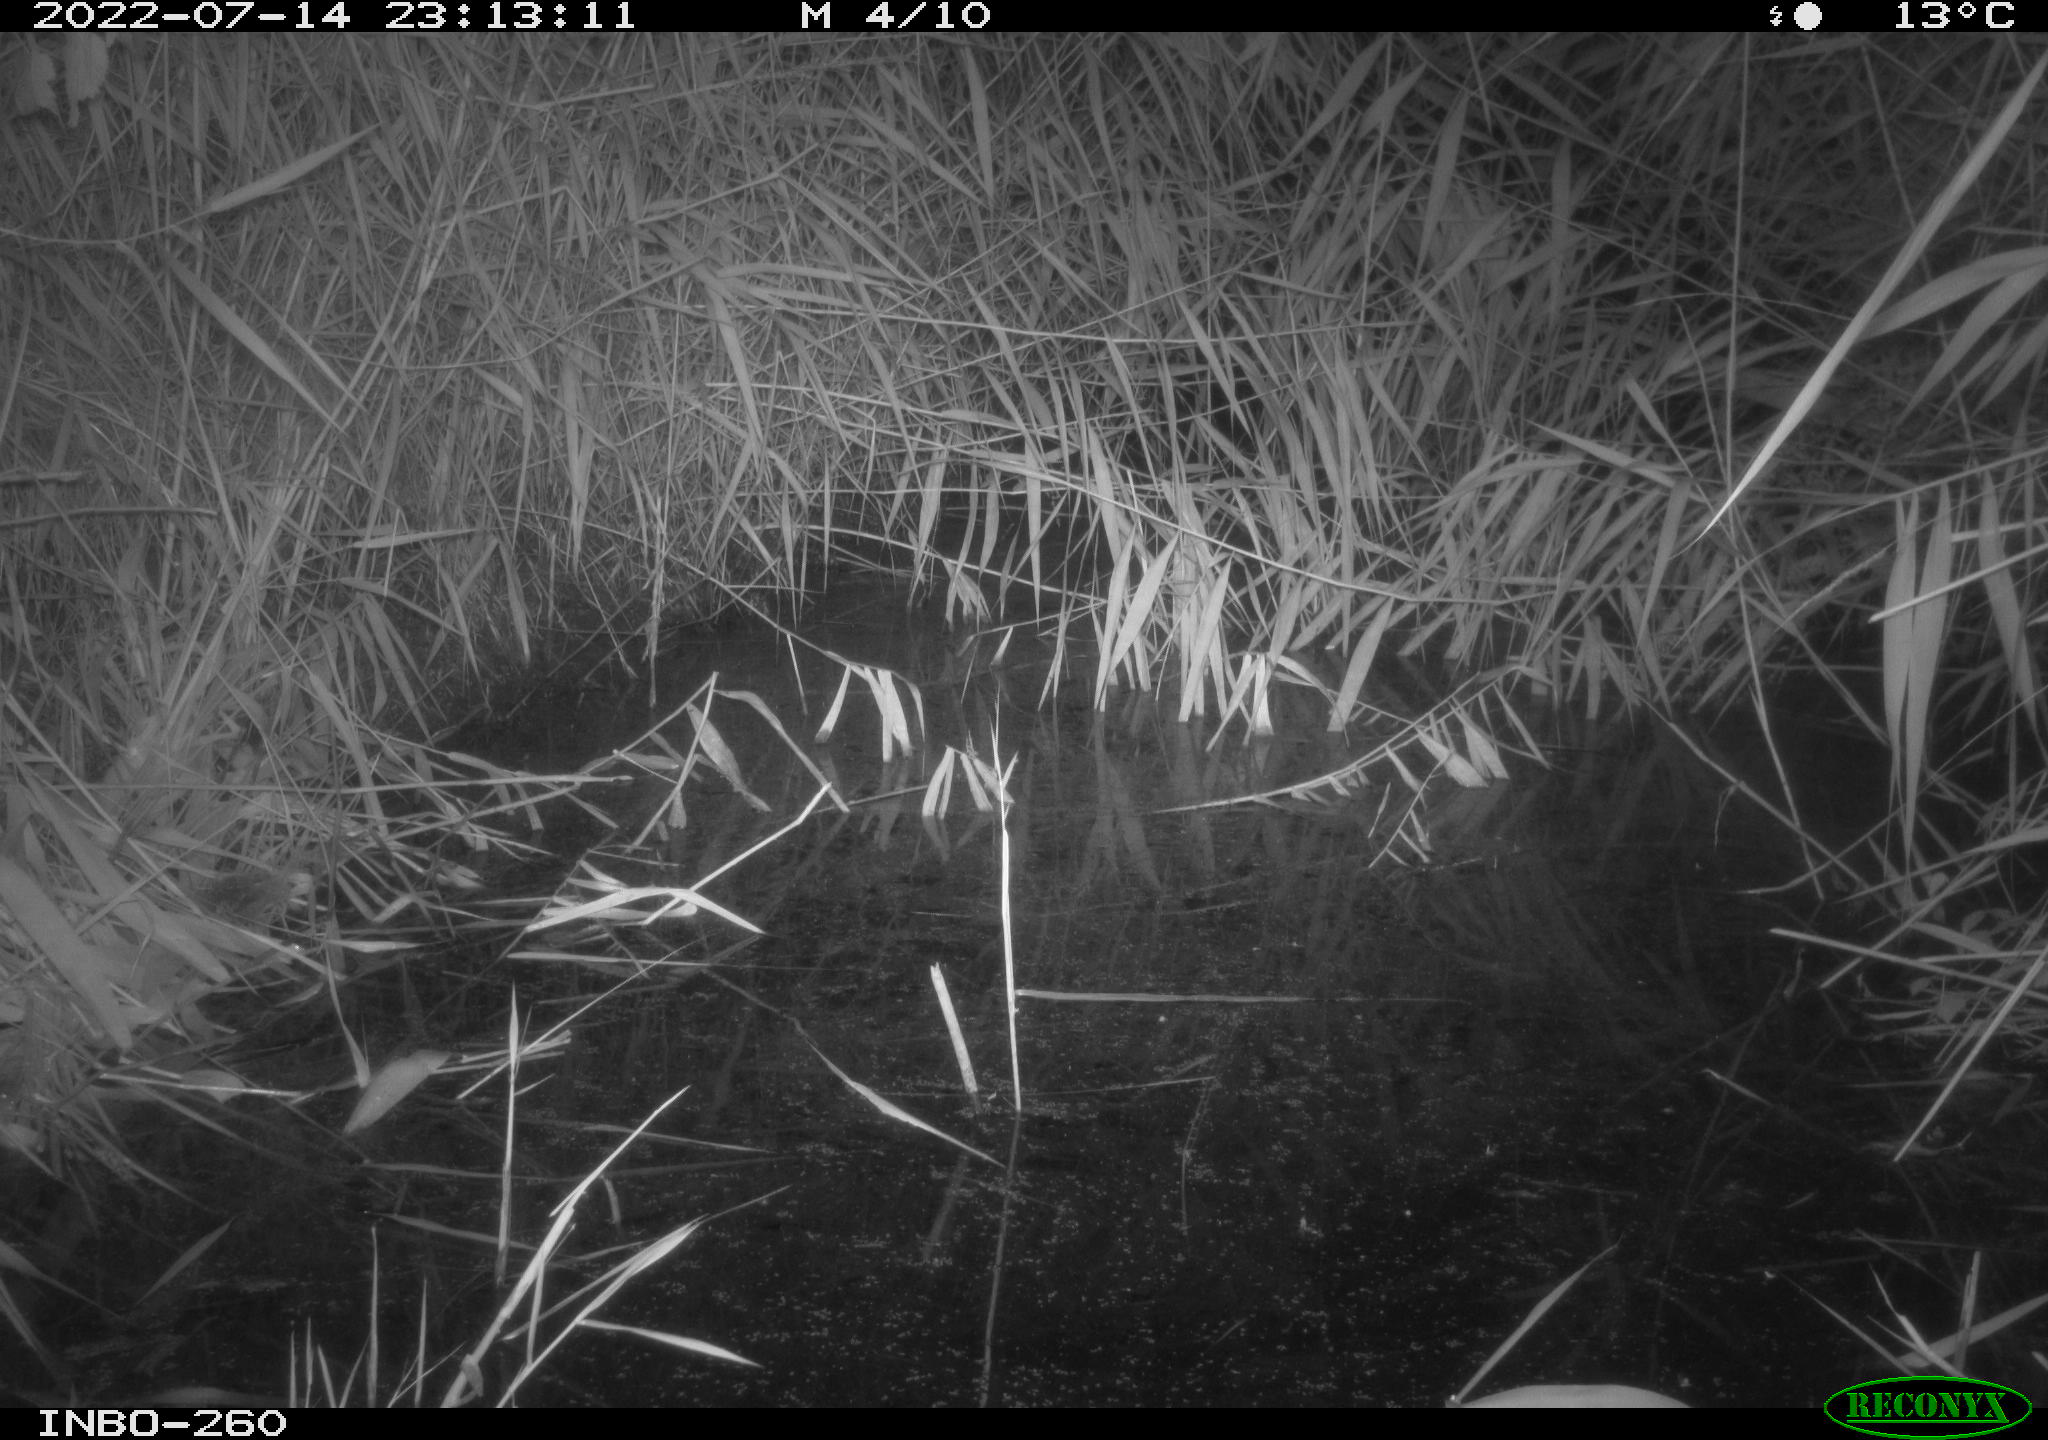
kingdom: Animalia
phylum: Chordata
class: Mammalia
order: Rodentia
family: Muridae
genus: Rattus
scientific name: Rattus norvegicus
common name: Brown rat
